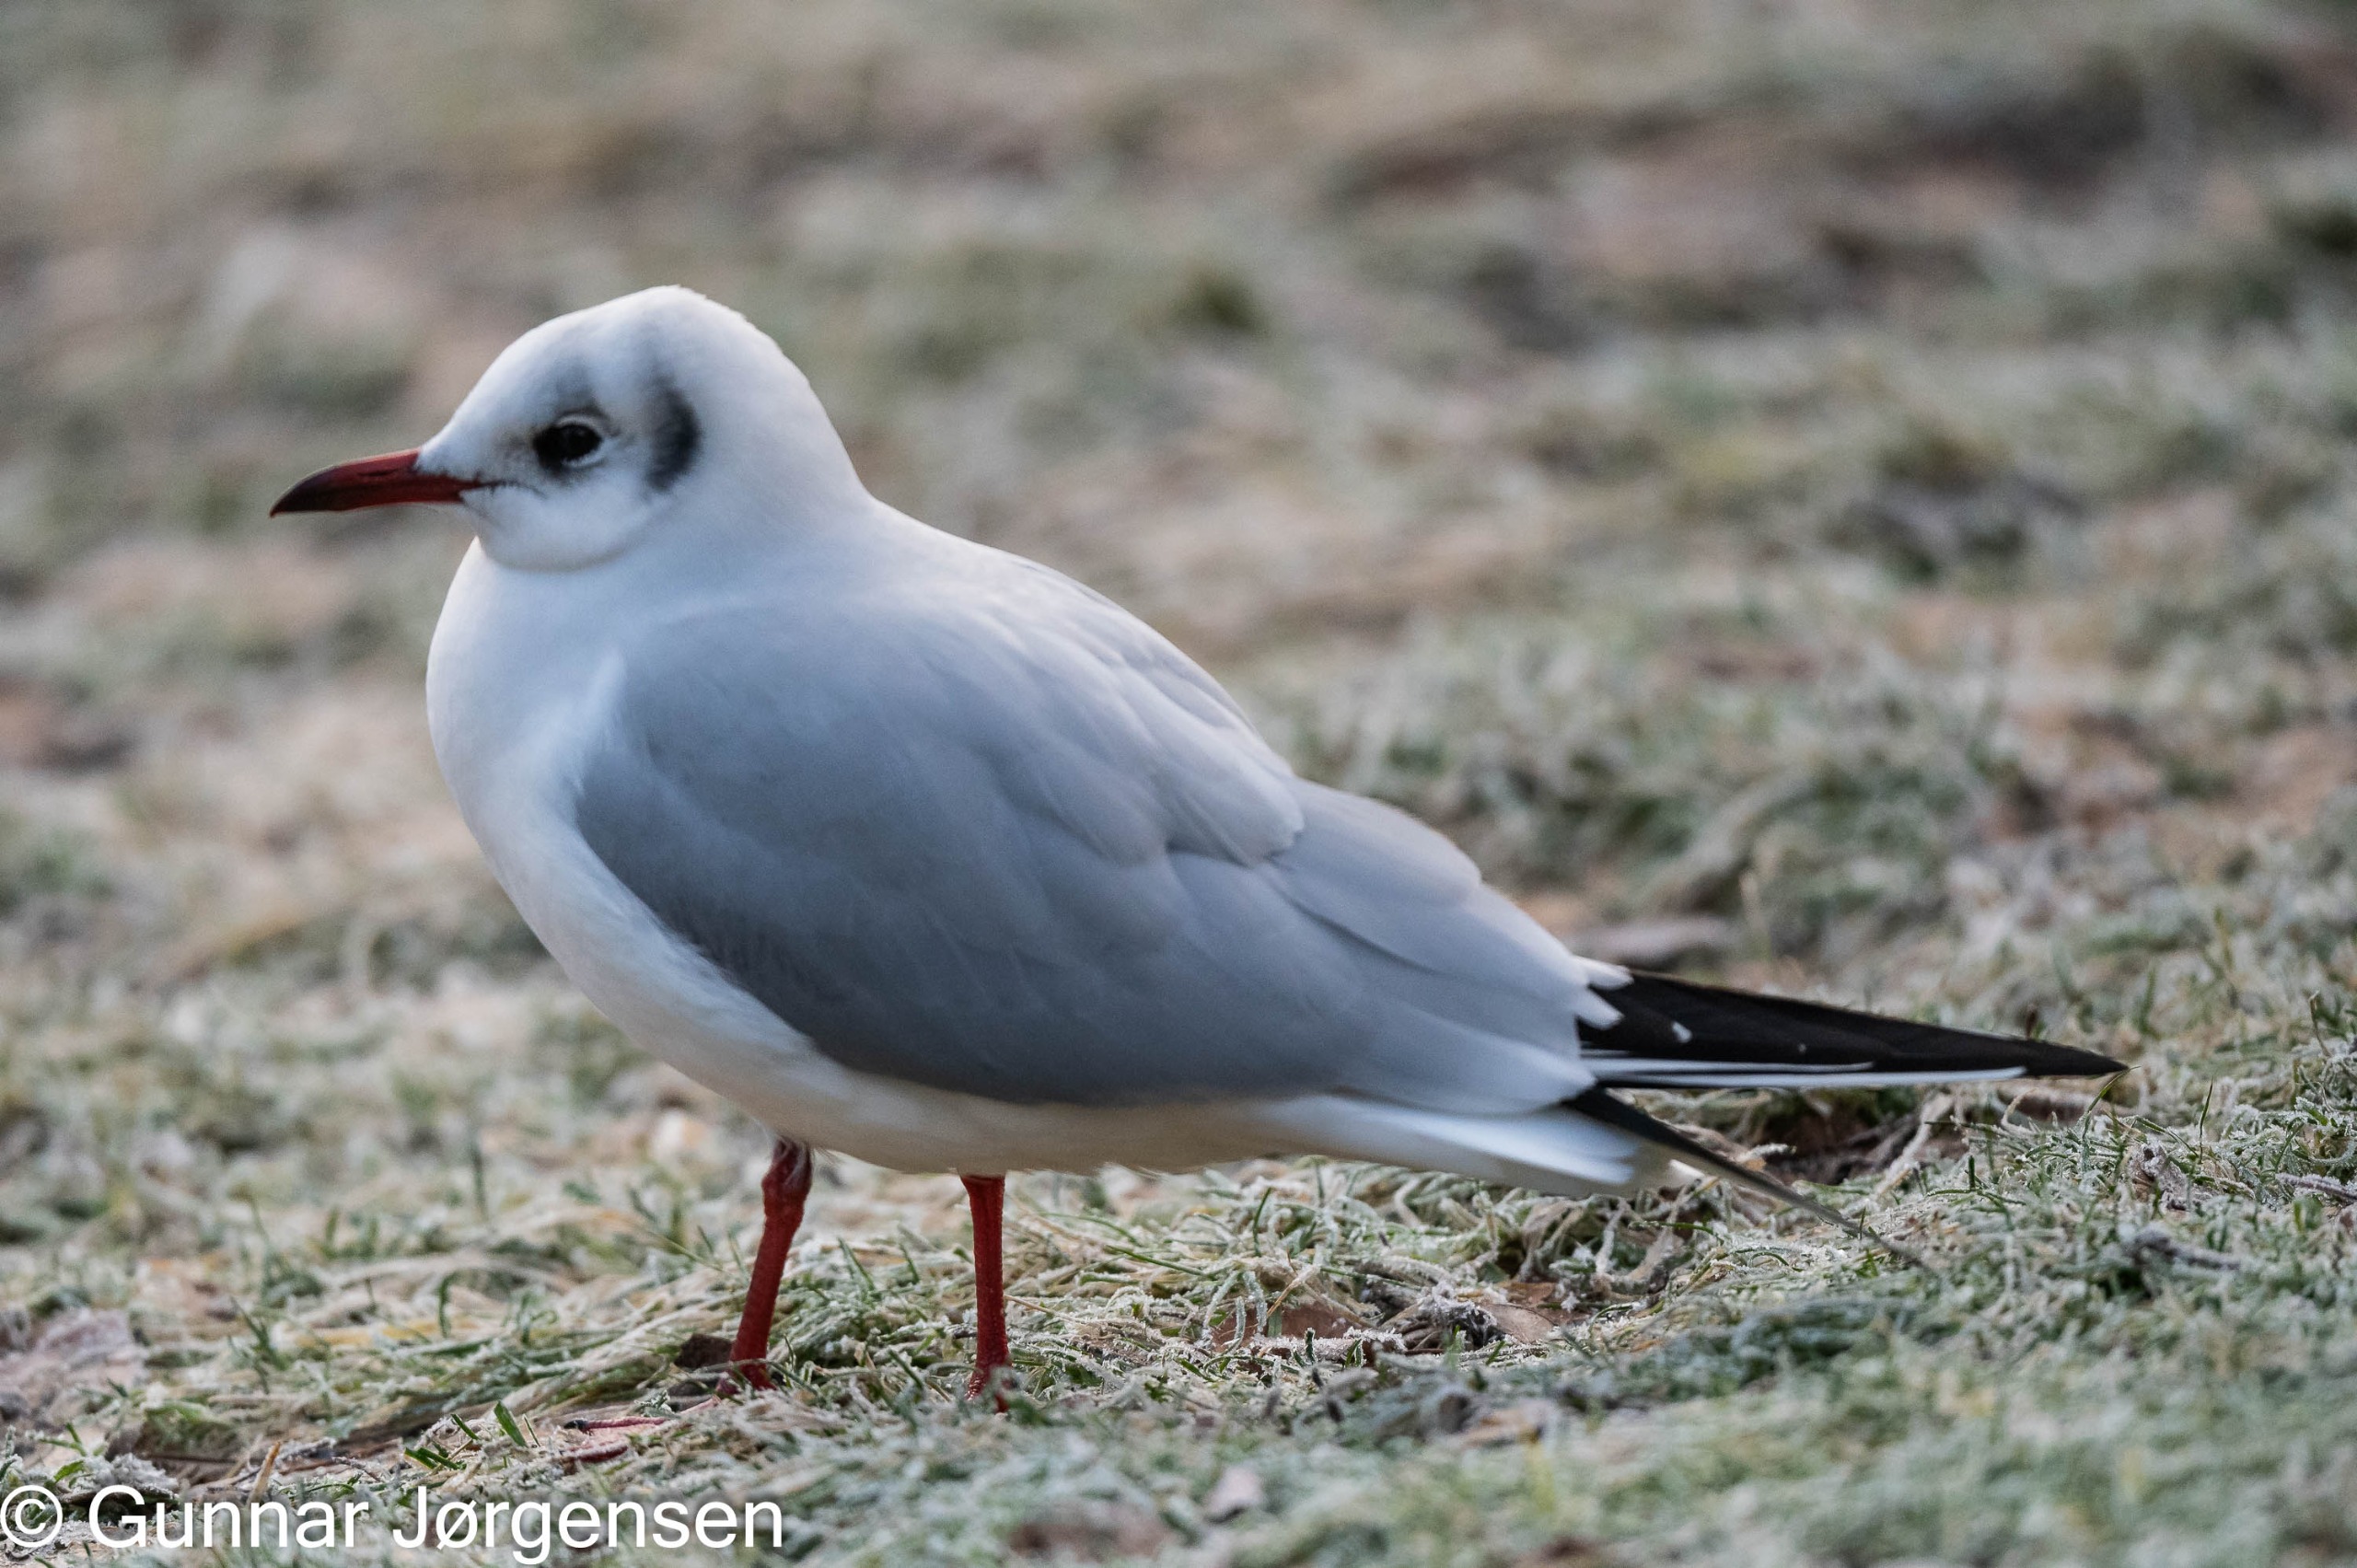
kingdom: Animalia
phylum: Chordata
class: Aves
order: Charadriiformes
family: Laridae
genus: Chroicocephalus
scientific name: Chroicocephalus ridibundus
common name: Hættemåge
